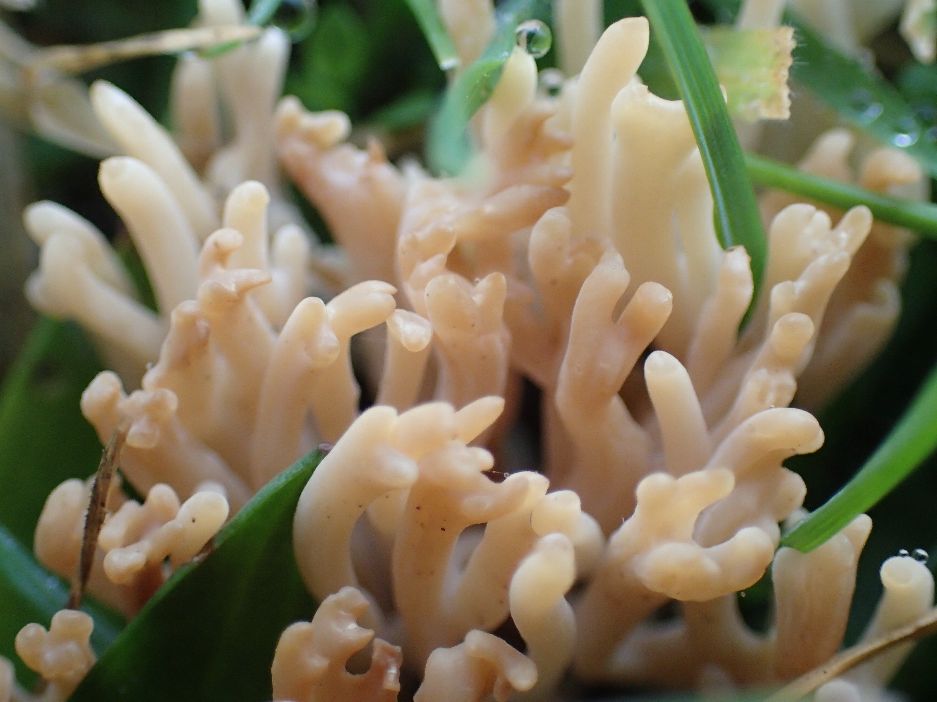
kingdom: Fungi
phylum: Basidiomycota
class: Agaricomycetes
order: Agaricales
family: Clavariaceae
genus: Clavulinopsis
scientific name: Clavulinopsis umbrinella
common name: gulgrå køllesvamp
